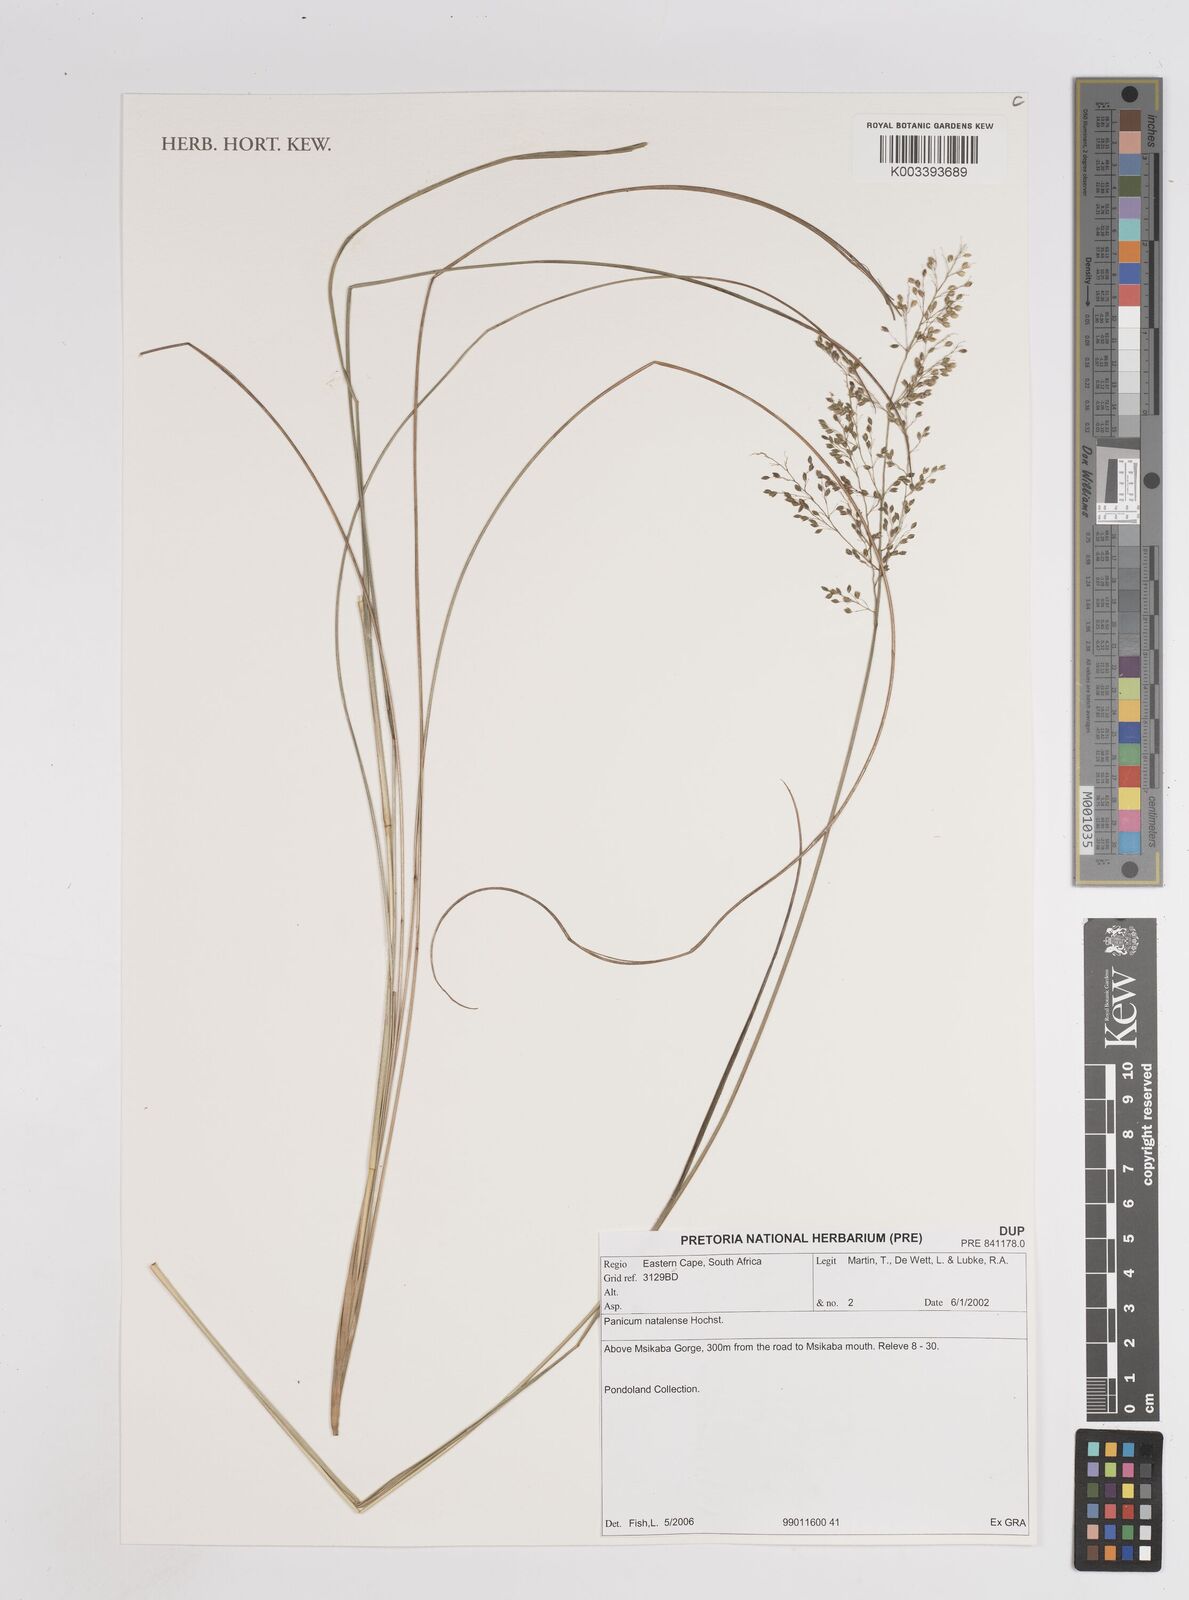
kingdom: Plantae
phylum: Tracheophyta
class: Liliopsida
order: Poales
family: Poaceae
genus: Trichanthecium
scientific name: Trichanthecium natalense
